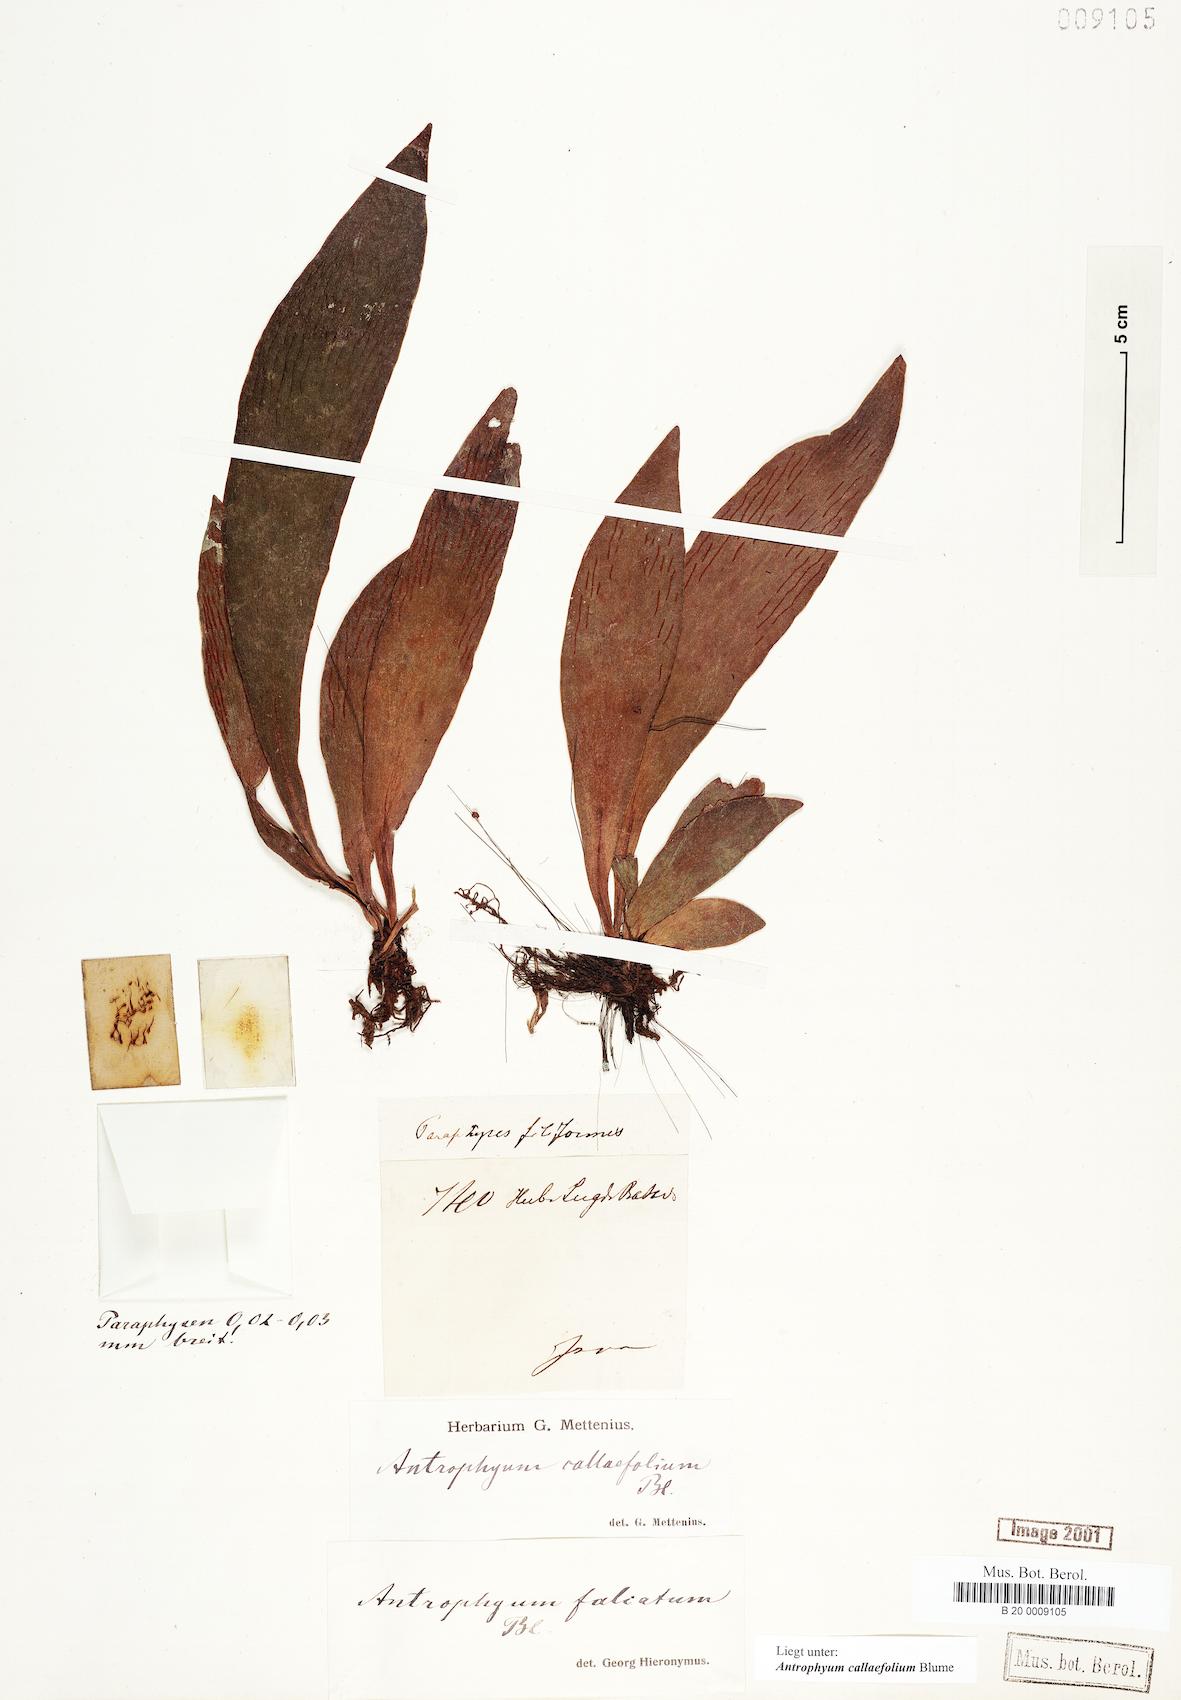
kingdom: Plantae
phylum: Tracheophyta
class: Polypodiopsida
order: Polypodiales
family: Pteridaceae
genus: Antrophyum
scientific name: Antrophyum callifolium
